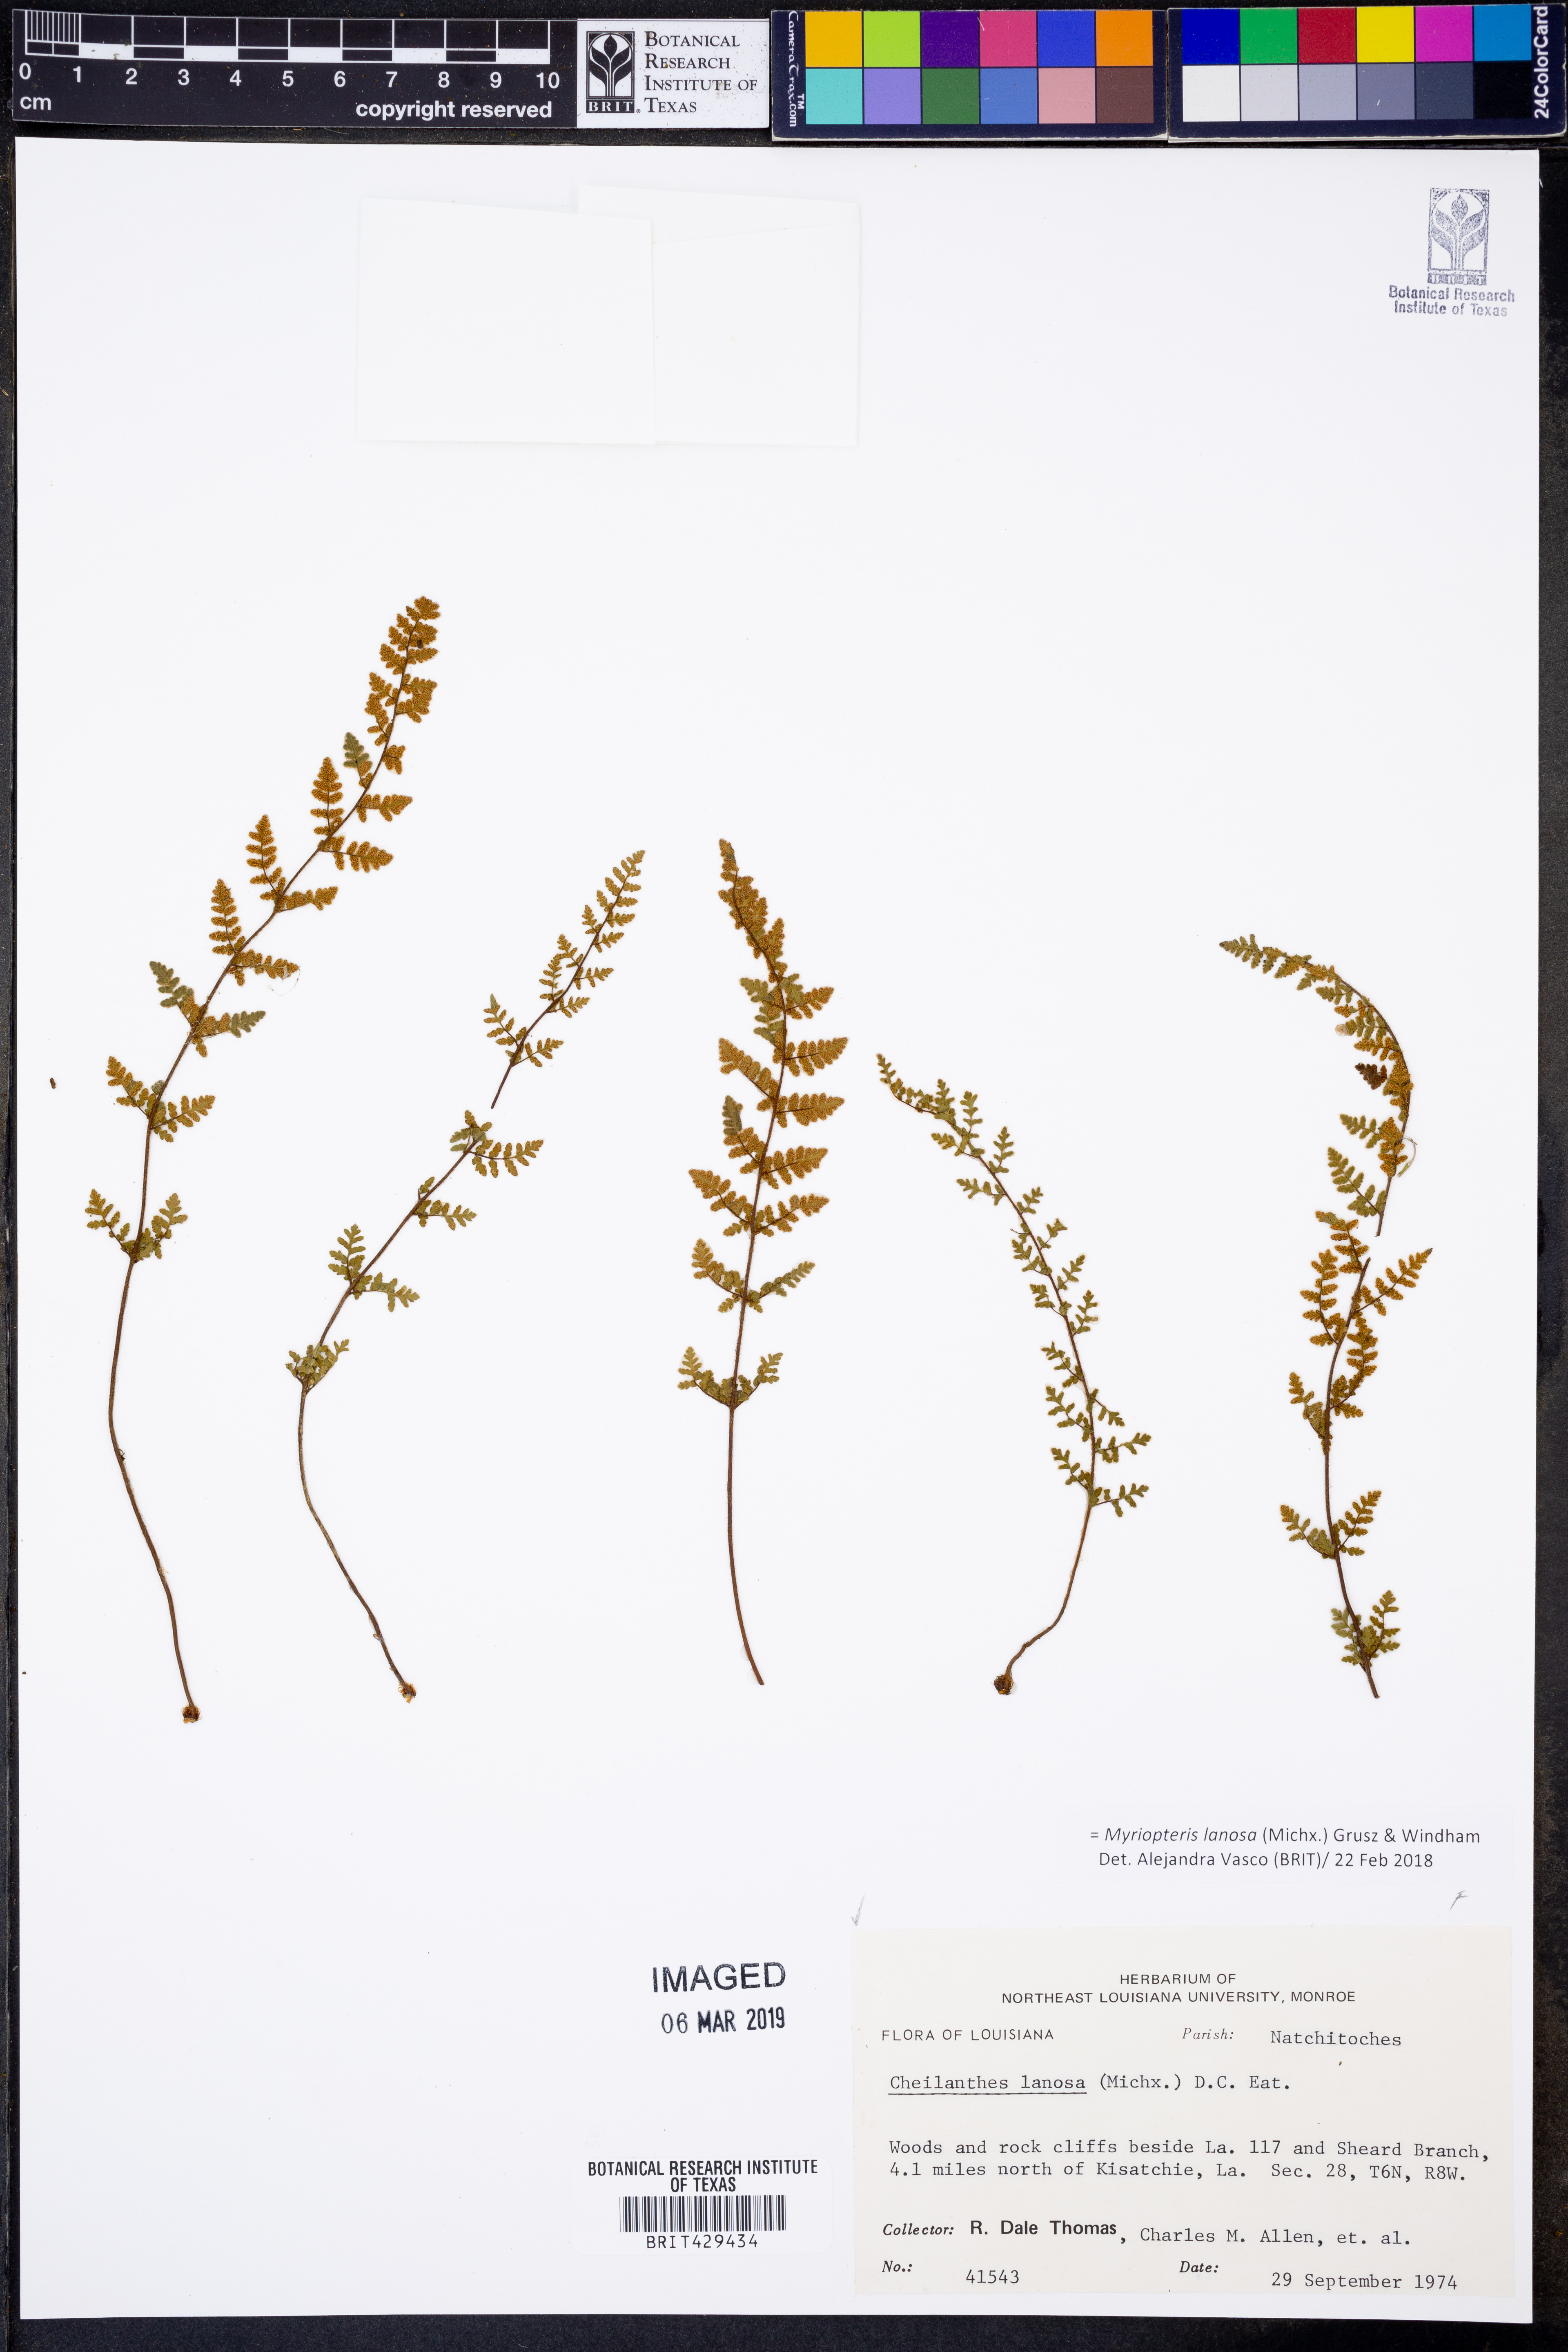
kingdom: Plantae
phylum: Tracheophyta
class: Polypodiopsida
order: Polypodiales
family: Pteridaceae
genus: Myriopteris
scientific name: Myriopteris lanosa
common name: Hairy lip fern
